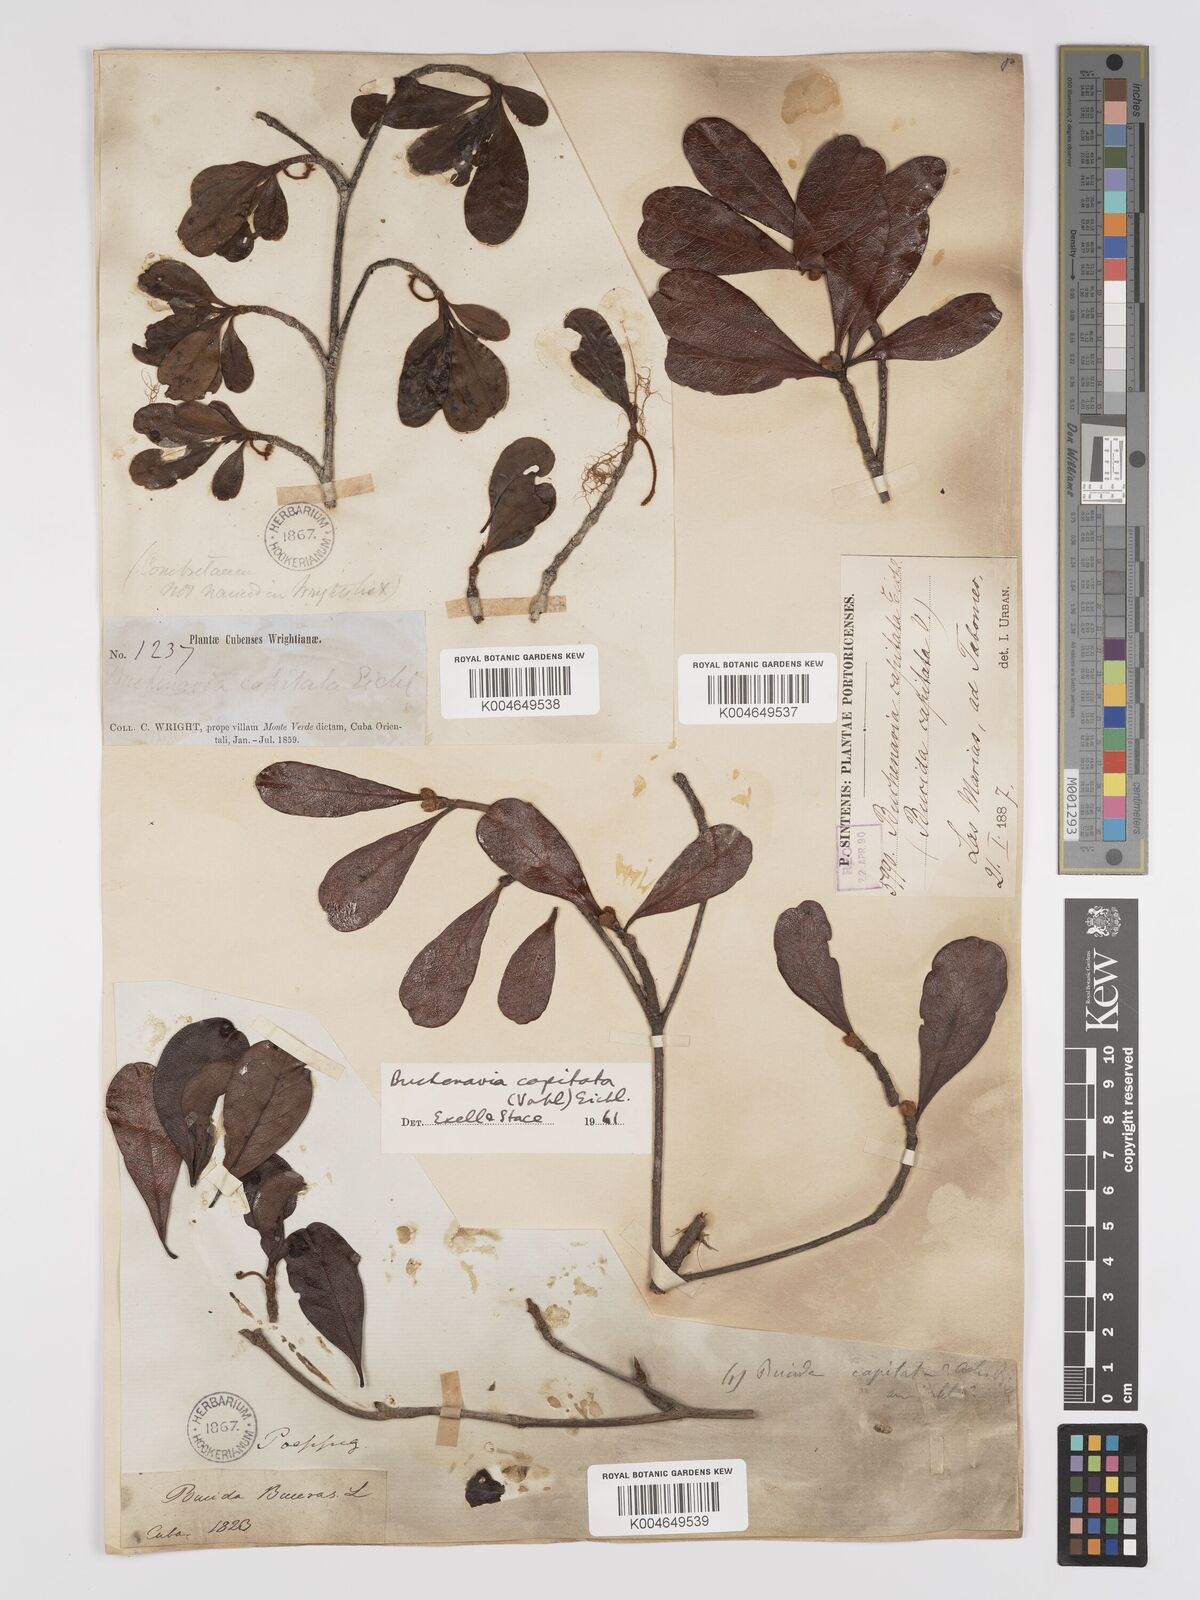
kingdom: Plantae
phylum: Tracheophyta
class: Magnoliopsida
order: Myrtales
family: Combretaceae
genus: Terminalia
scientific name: Terminalia tetraphylla
